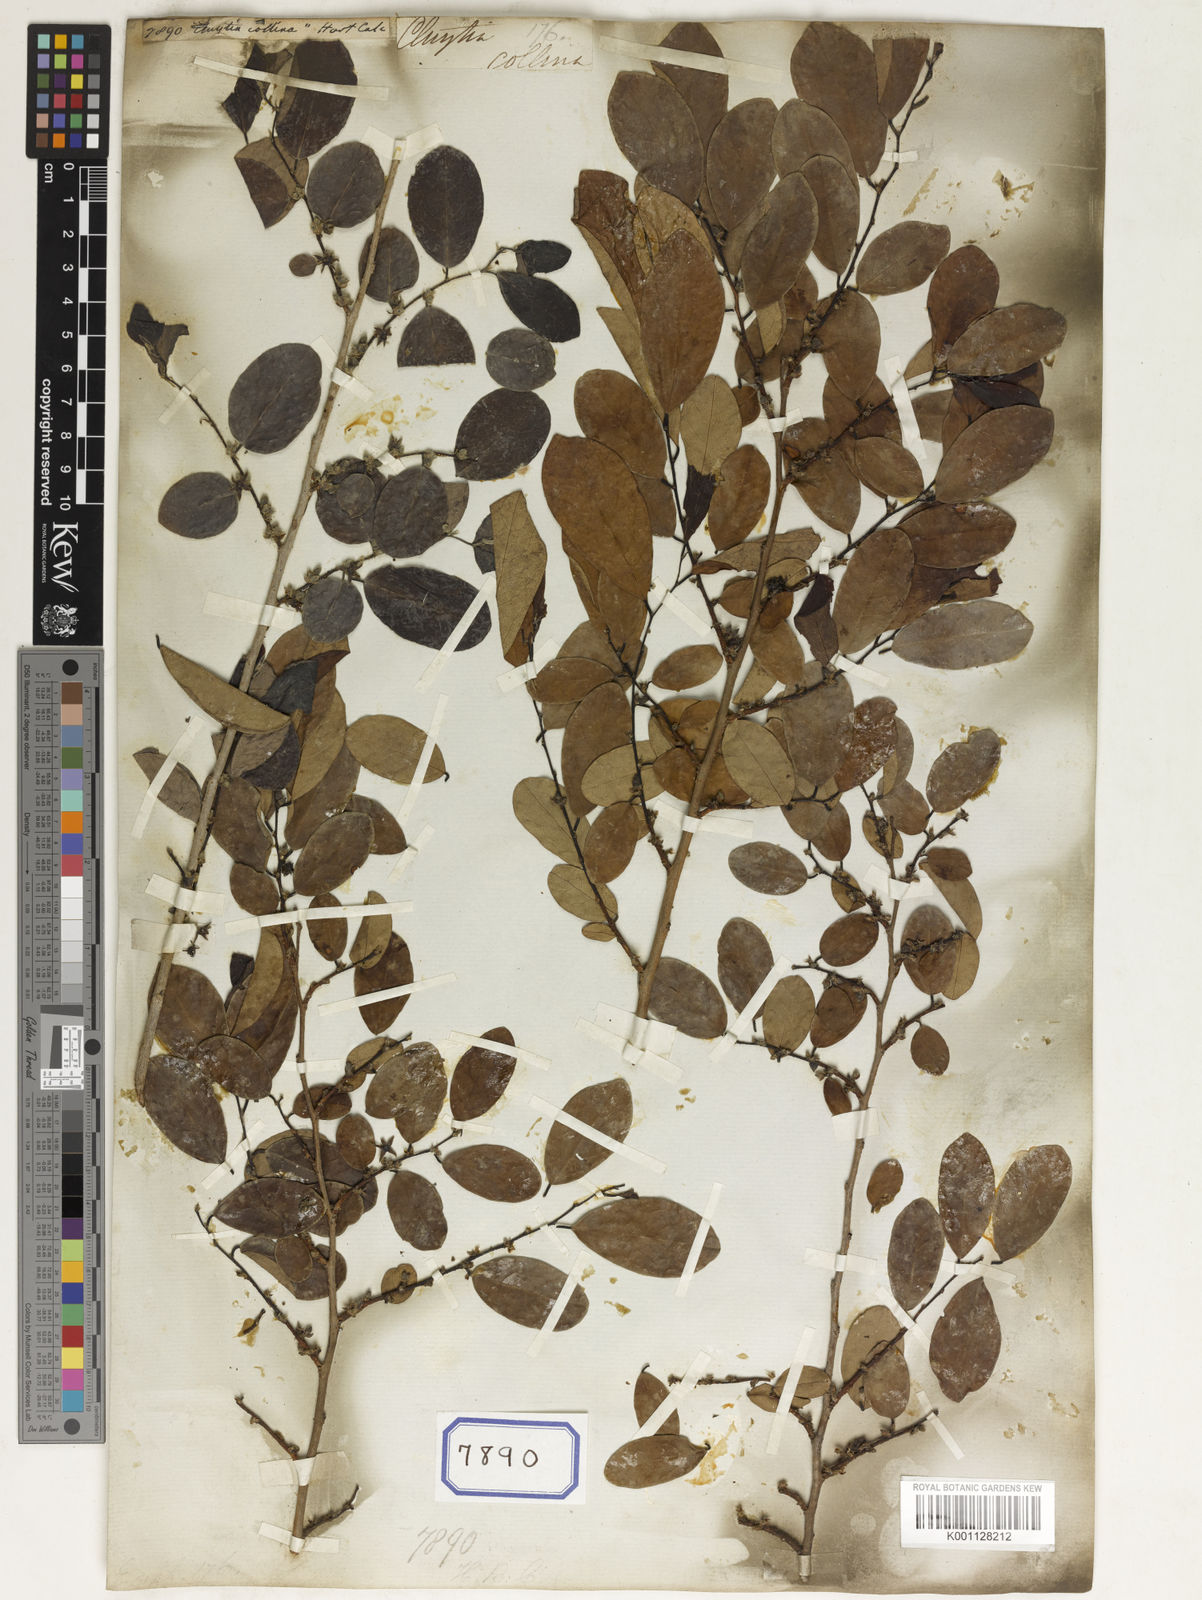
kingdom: Plantae
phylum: Tracheophyta
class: Magnoliopsida
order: Malpighiales
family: Euphorbiaceae
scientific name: Euphorbiaceae
